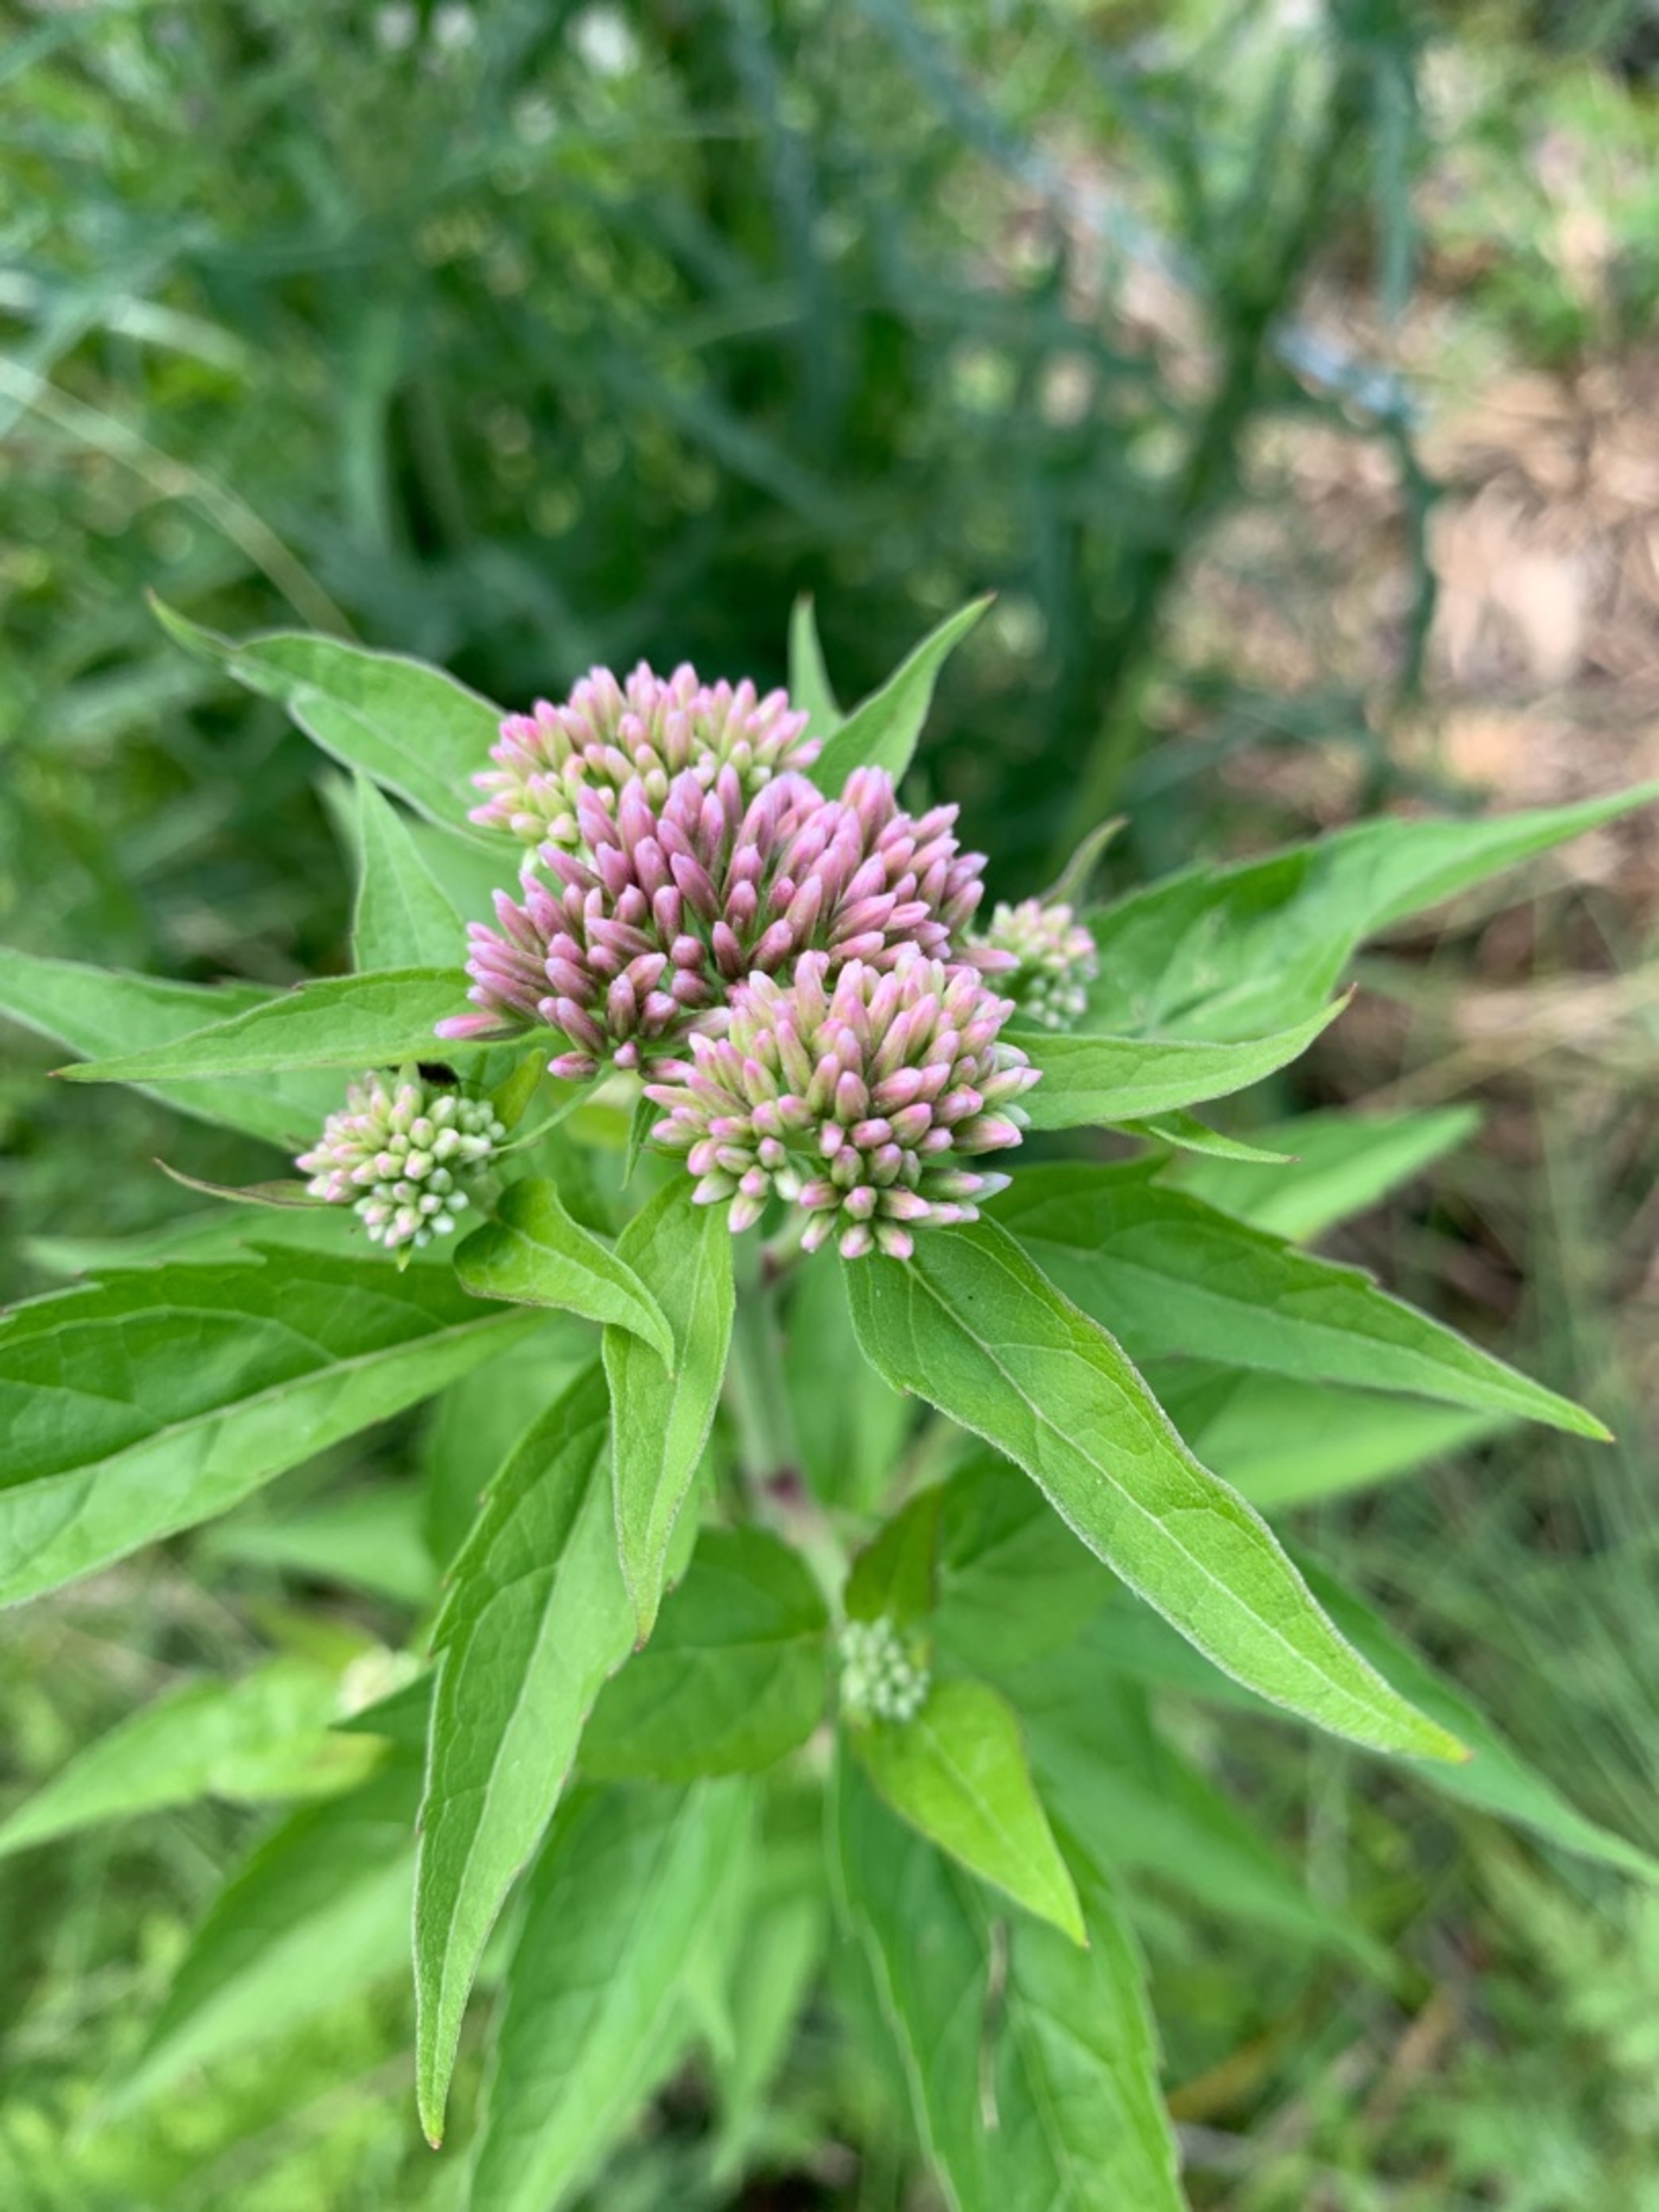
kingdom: Plantae
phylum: Tracheophyta
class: Magnoliopsida
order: Asterales
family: Asteraceae
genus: Eupatorium
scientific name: Eupatorium cannabinum
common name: Hjortetrøst
